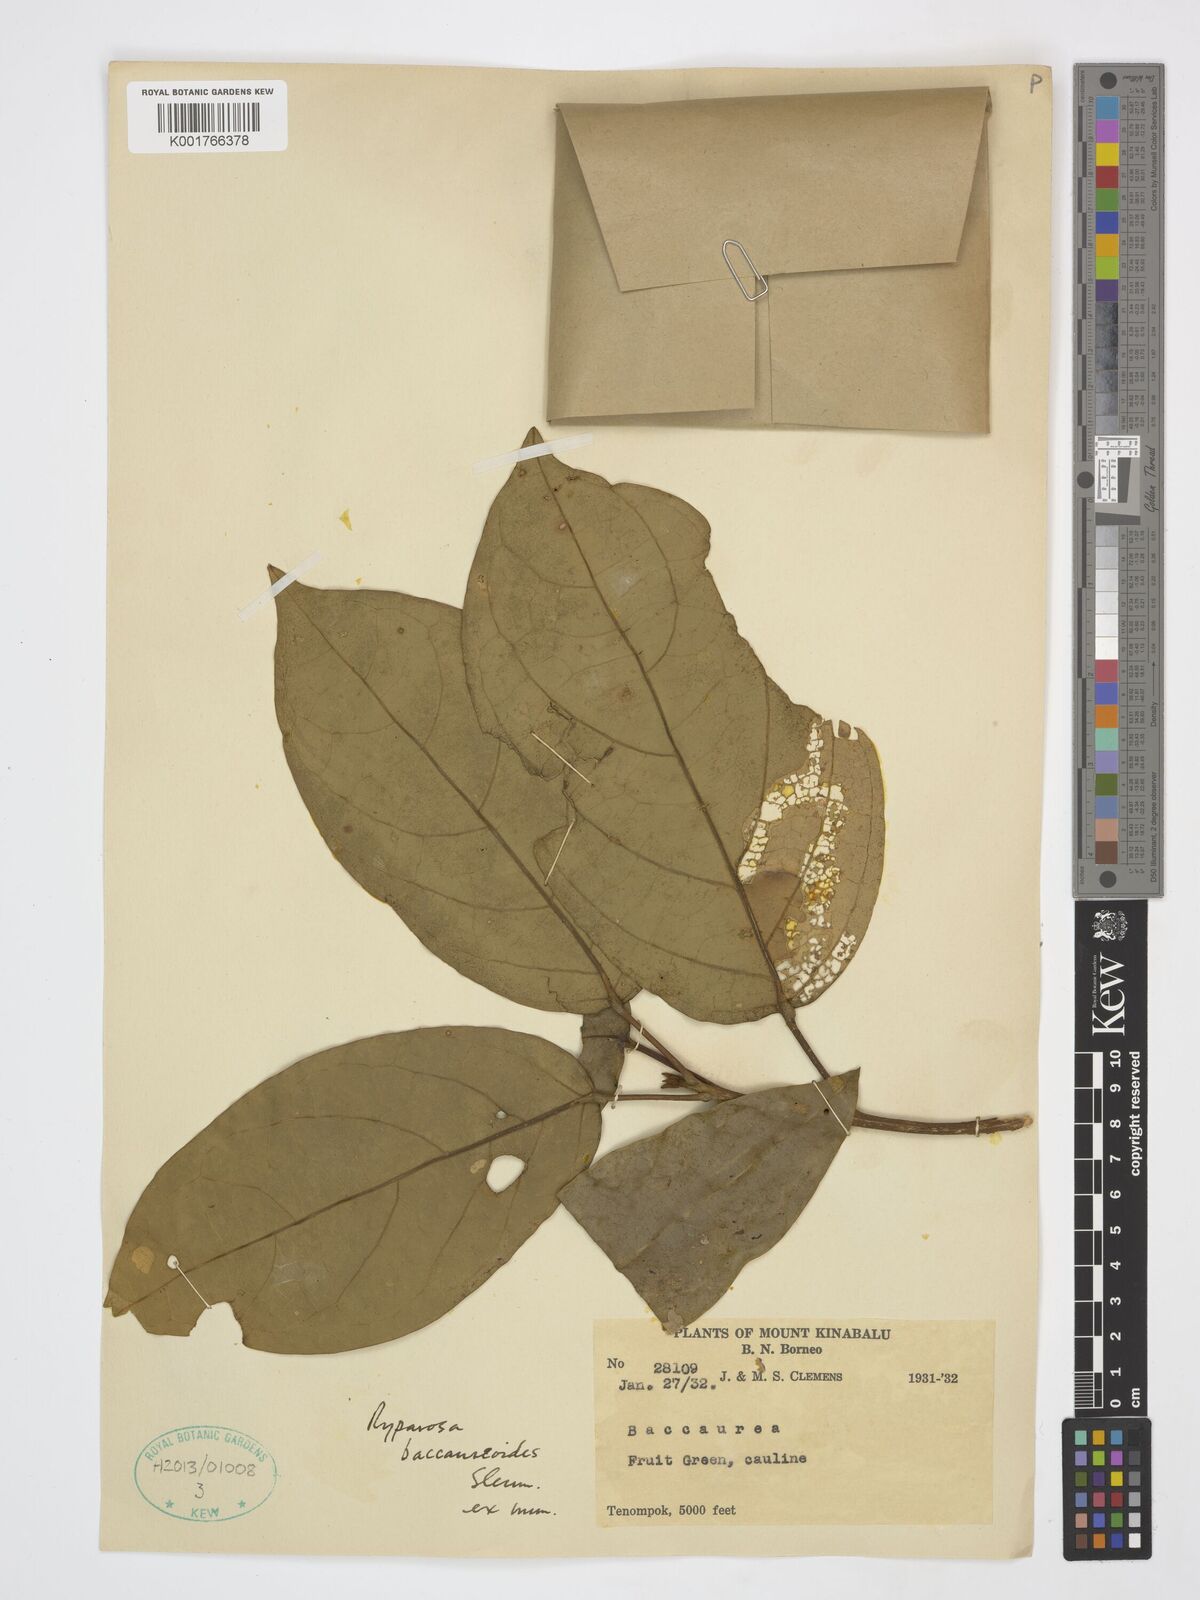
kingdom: Plantae
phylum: Tracheophyta
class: Magnoliopsida
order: Malpighiales
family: Achariaceae
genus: Ryparosa
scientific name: Ryparosa baccaureoides
